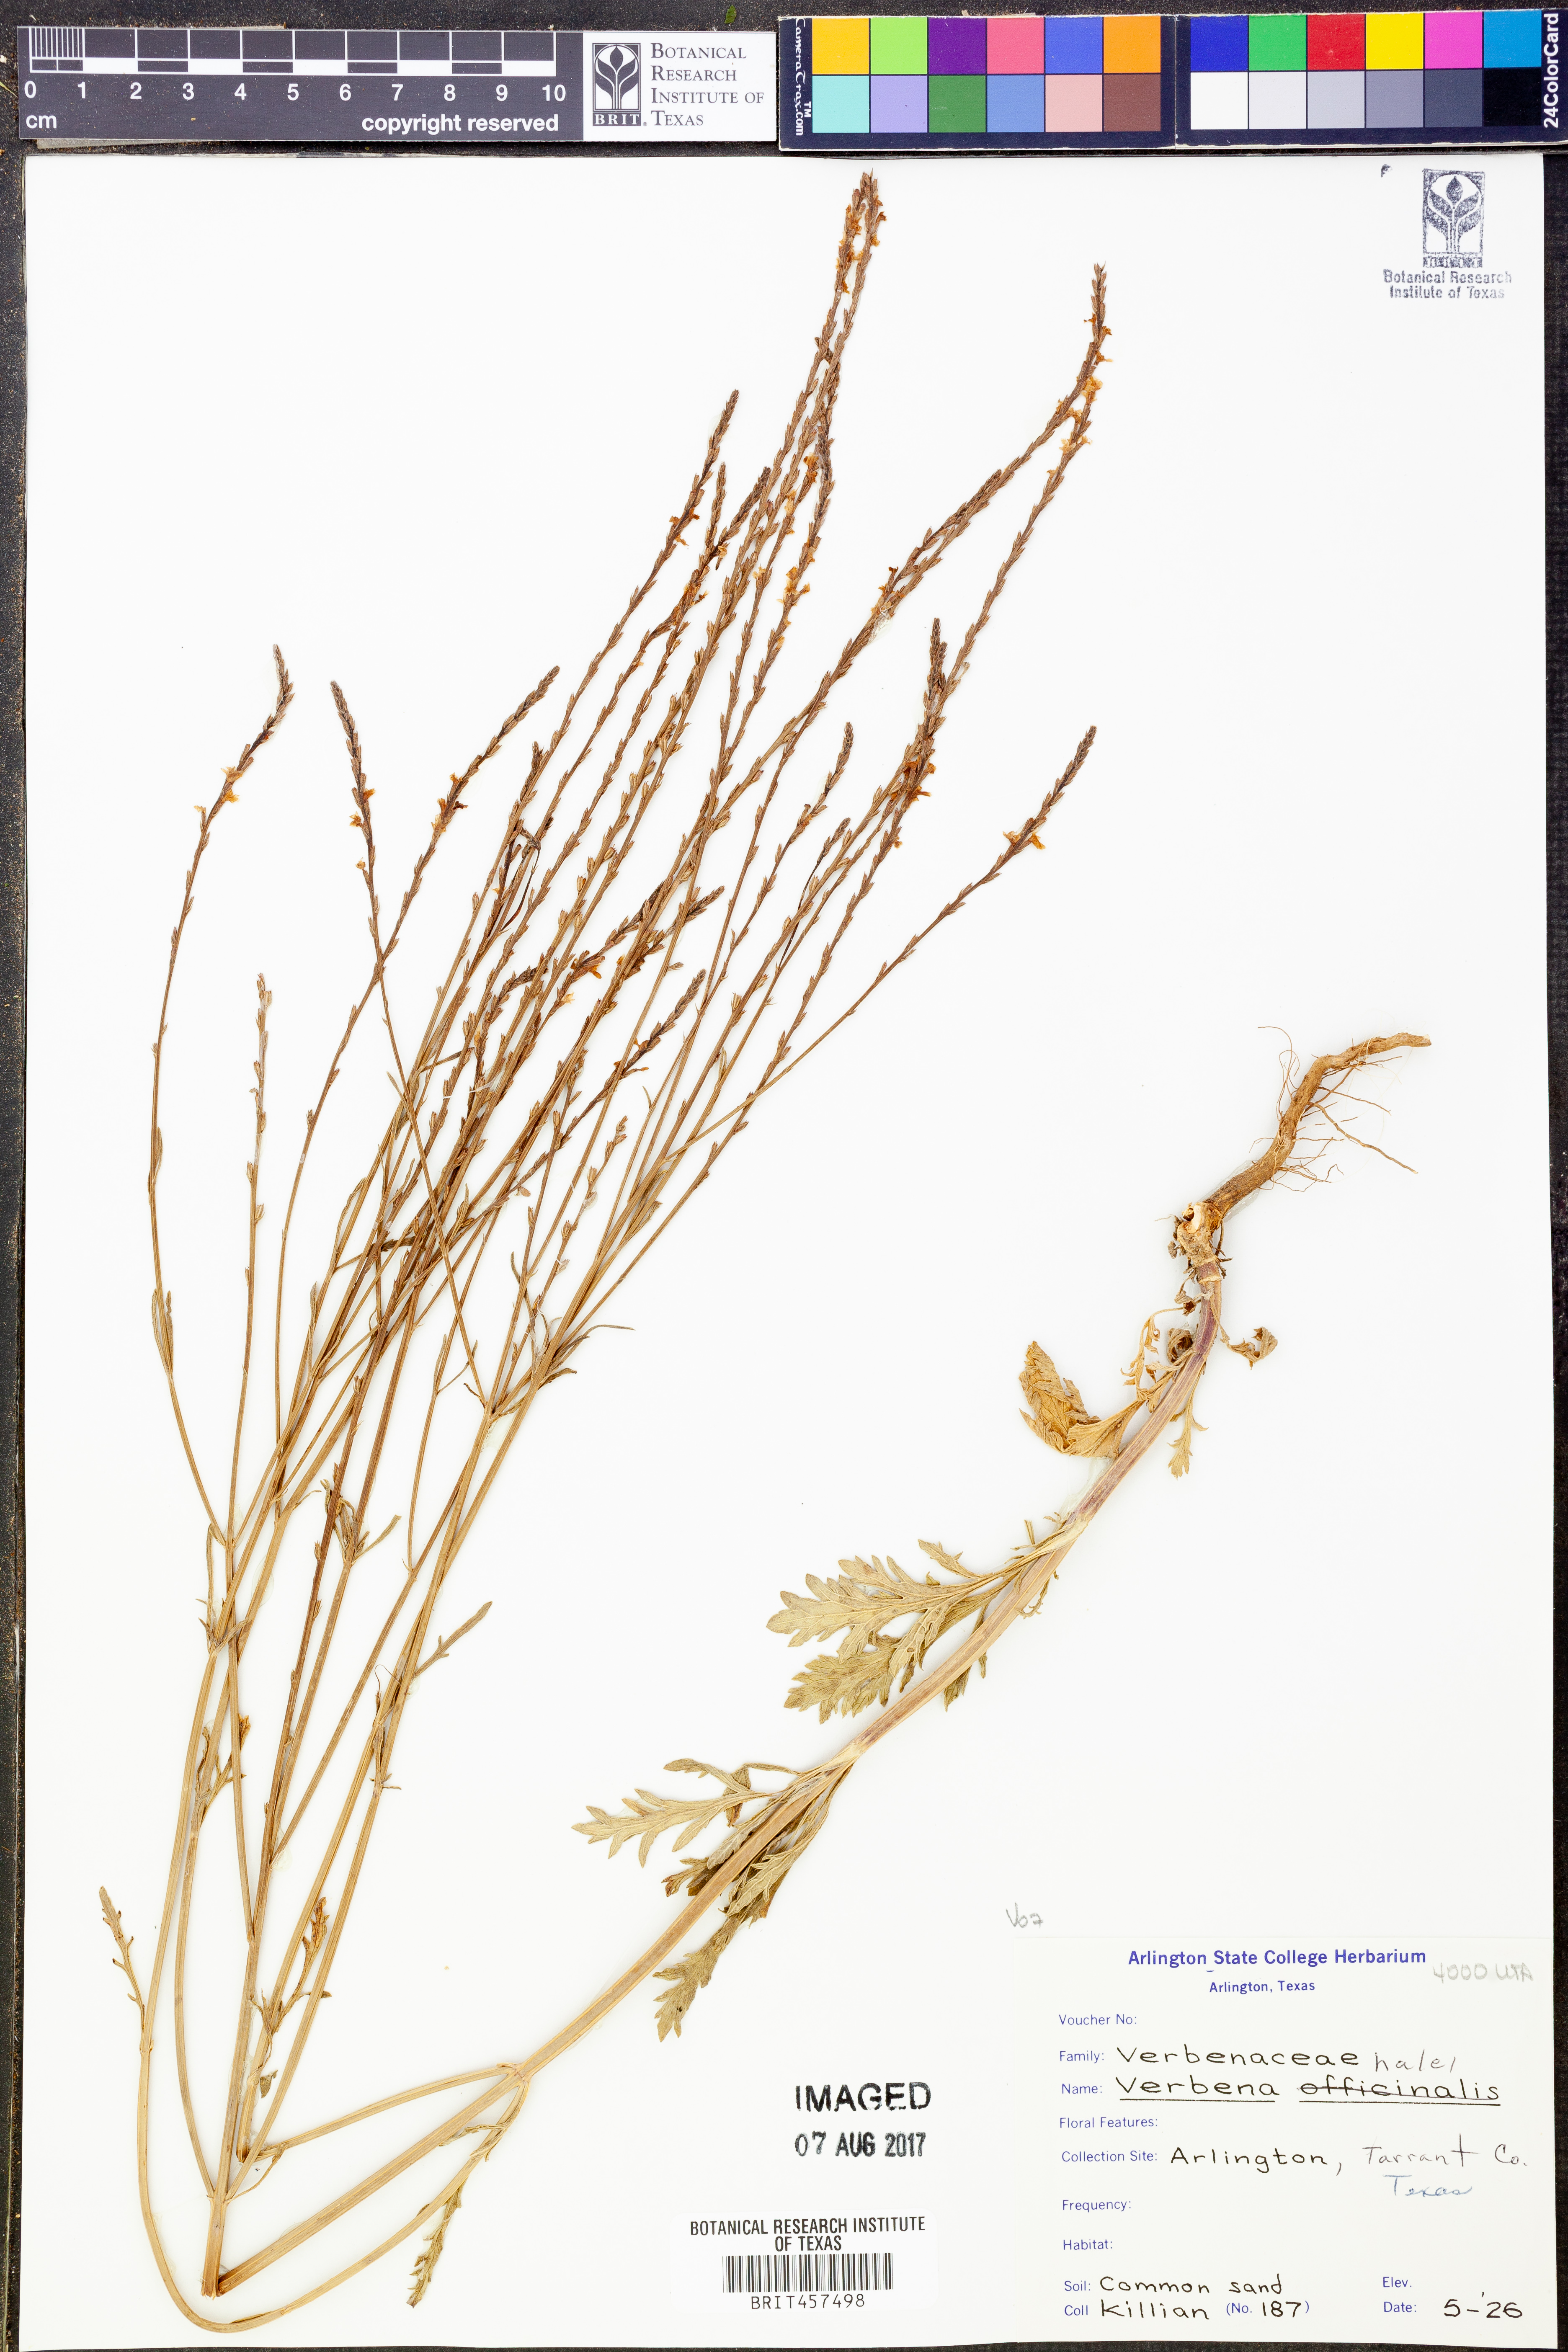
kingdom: Plantae
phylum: Tracheophyta
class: Magnoliopsida
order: Lamiales
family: Verbenaceae
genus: Verbena
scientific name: Verbena halei
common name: Texas vervain
